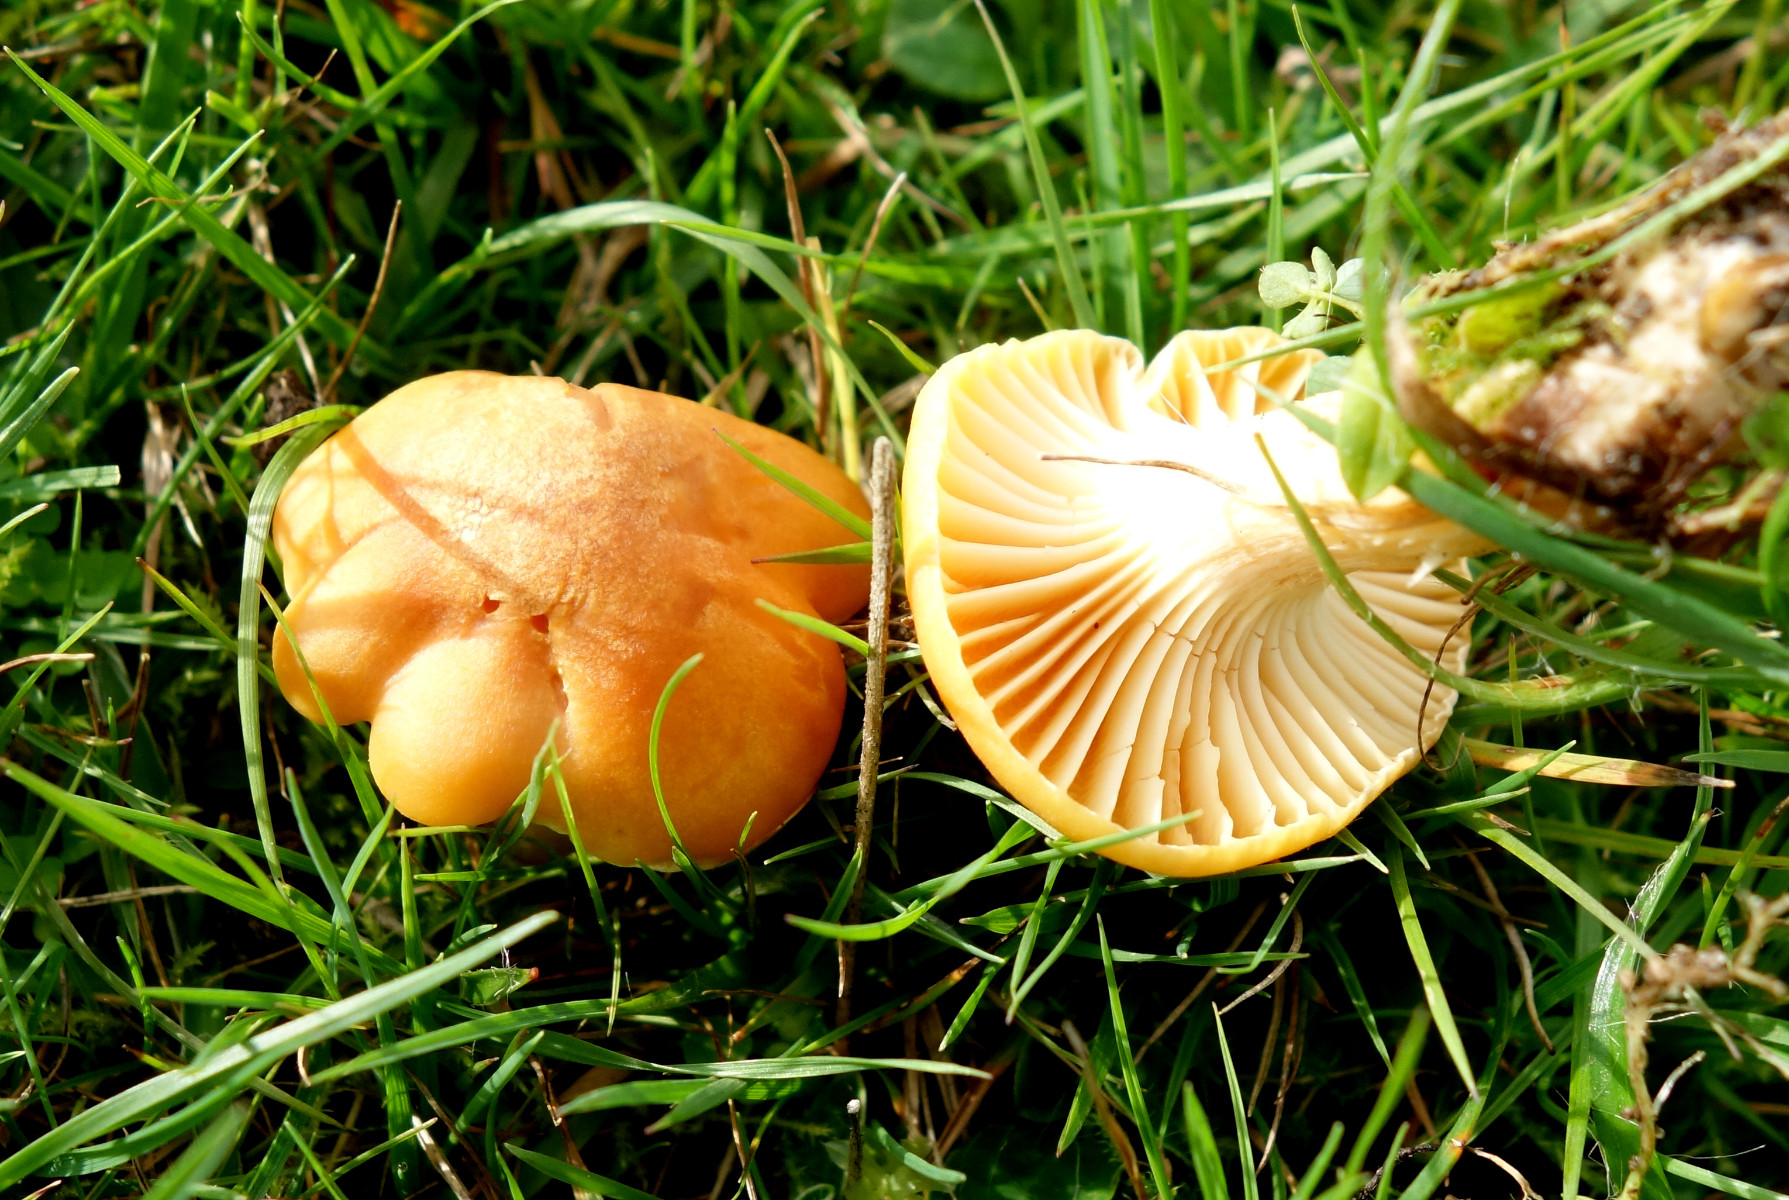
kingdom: Fungi
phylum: Basidiomycota
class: Agaricomycetes
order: Agaricales
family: Hygrophoraceae
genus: Cuphophyllus
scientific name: Cuphophyllus pratensis
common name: eng-vokshat
